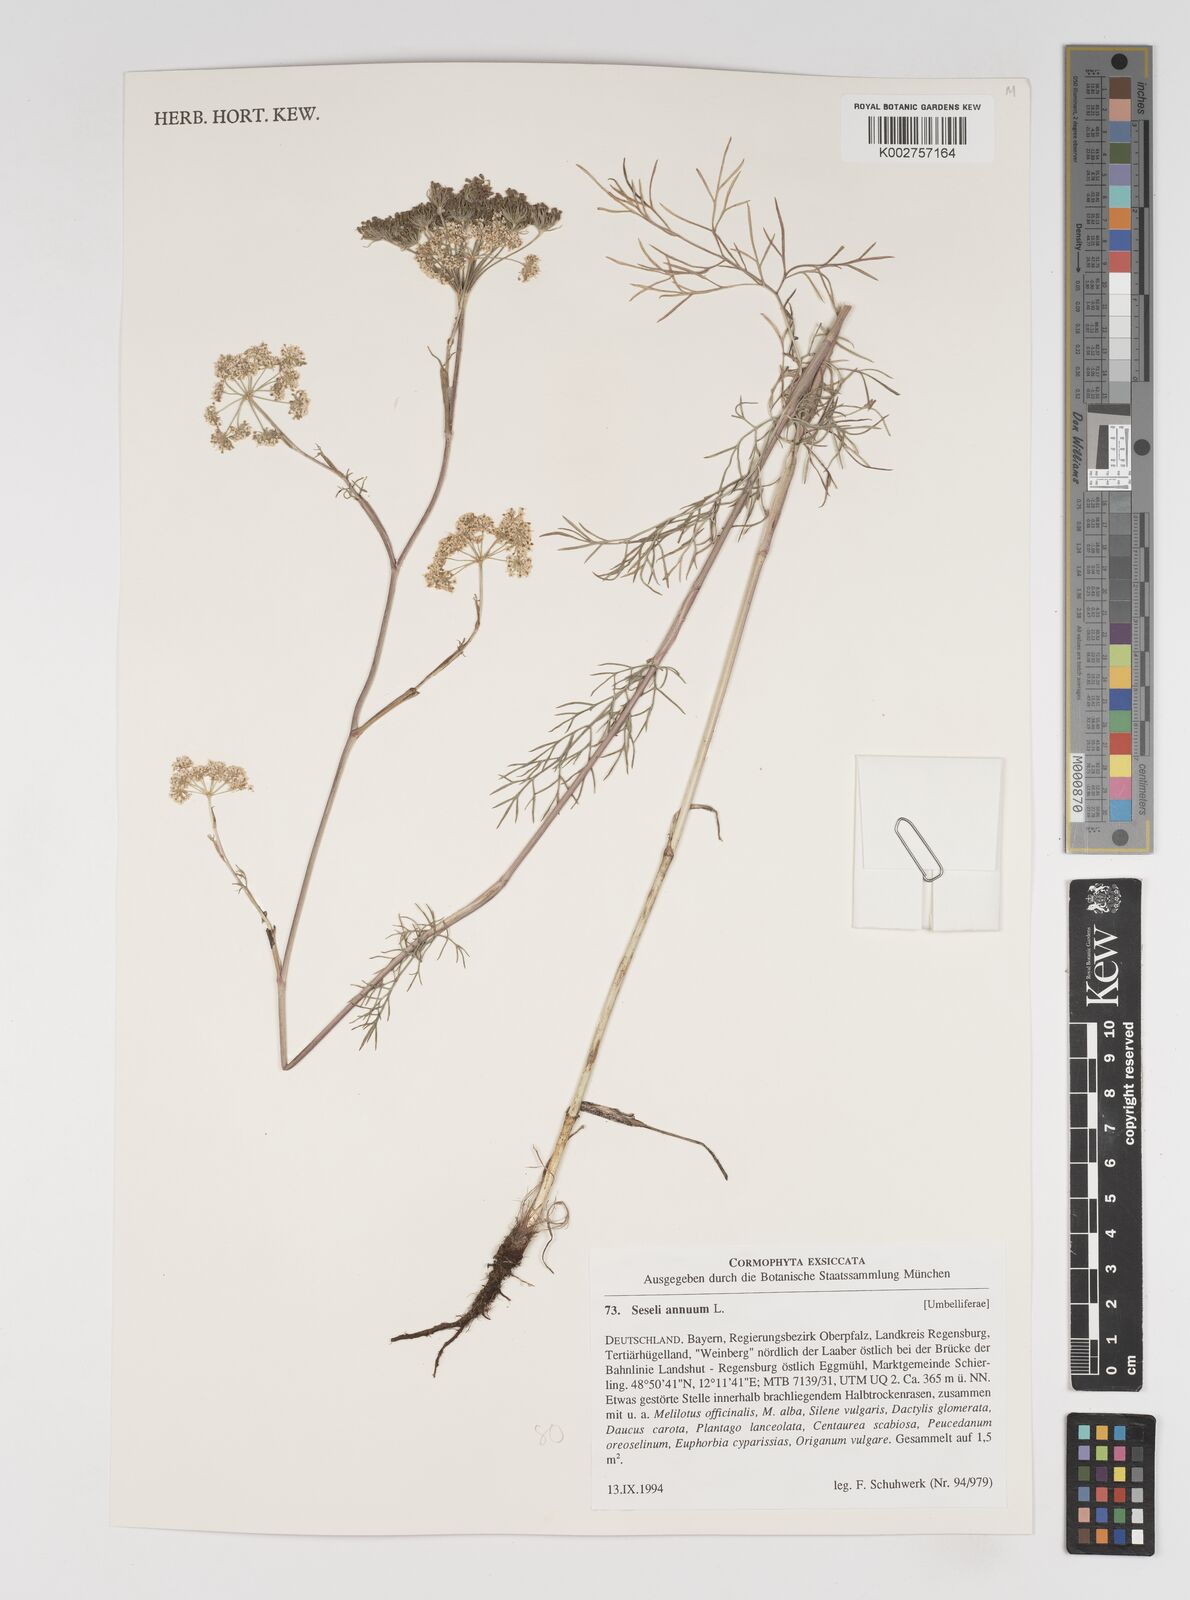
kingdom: Plantae
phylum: Tracheophyta
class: Magnoliopsida
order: Apiales
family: Apiaceae
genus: Seseli
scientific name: Seseli annuum
